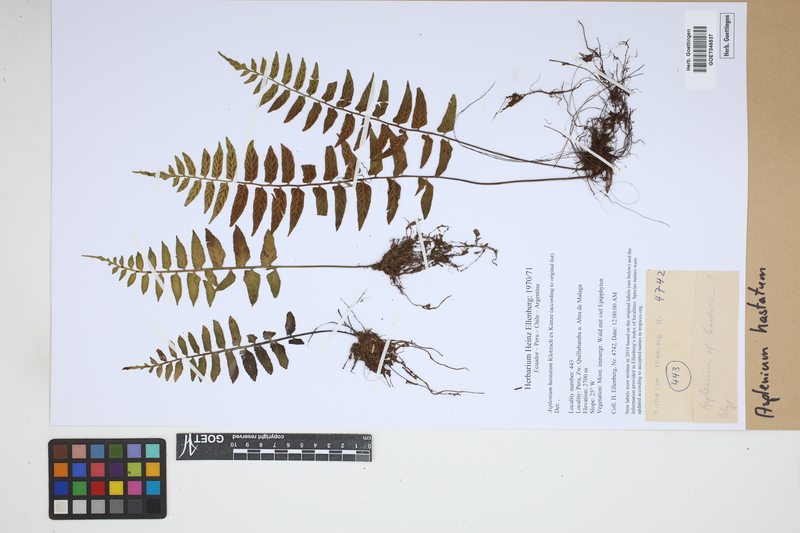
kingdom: Plantae
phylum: Tracheophyta
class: Polypodiopsida
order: Polypodiales
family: Aspleniaceae
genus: Asplenium
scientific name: Asplenium hastatum
